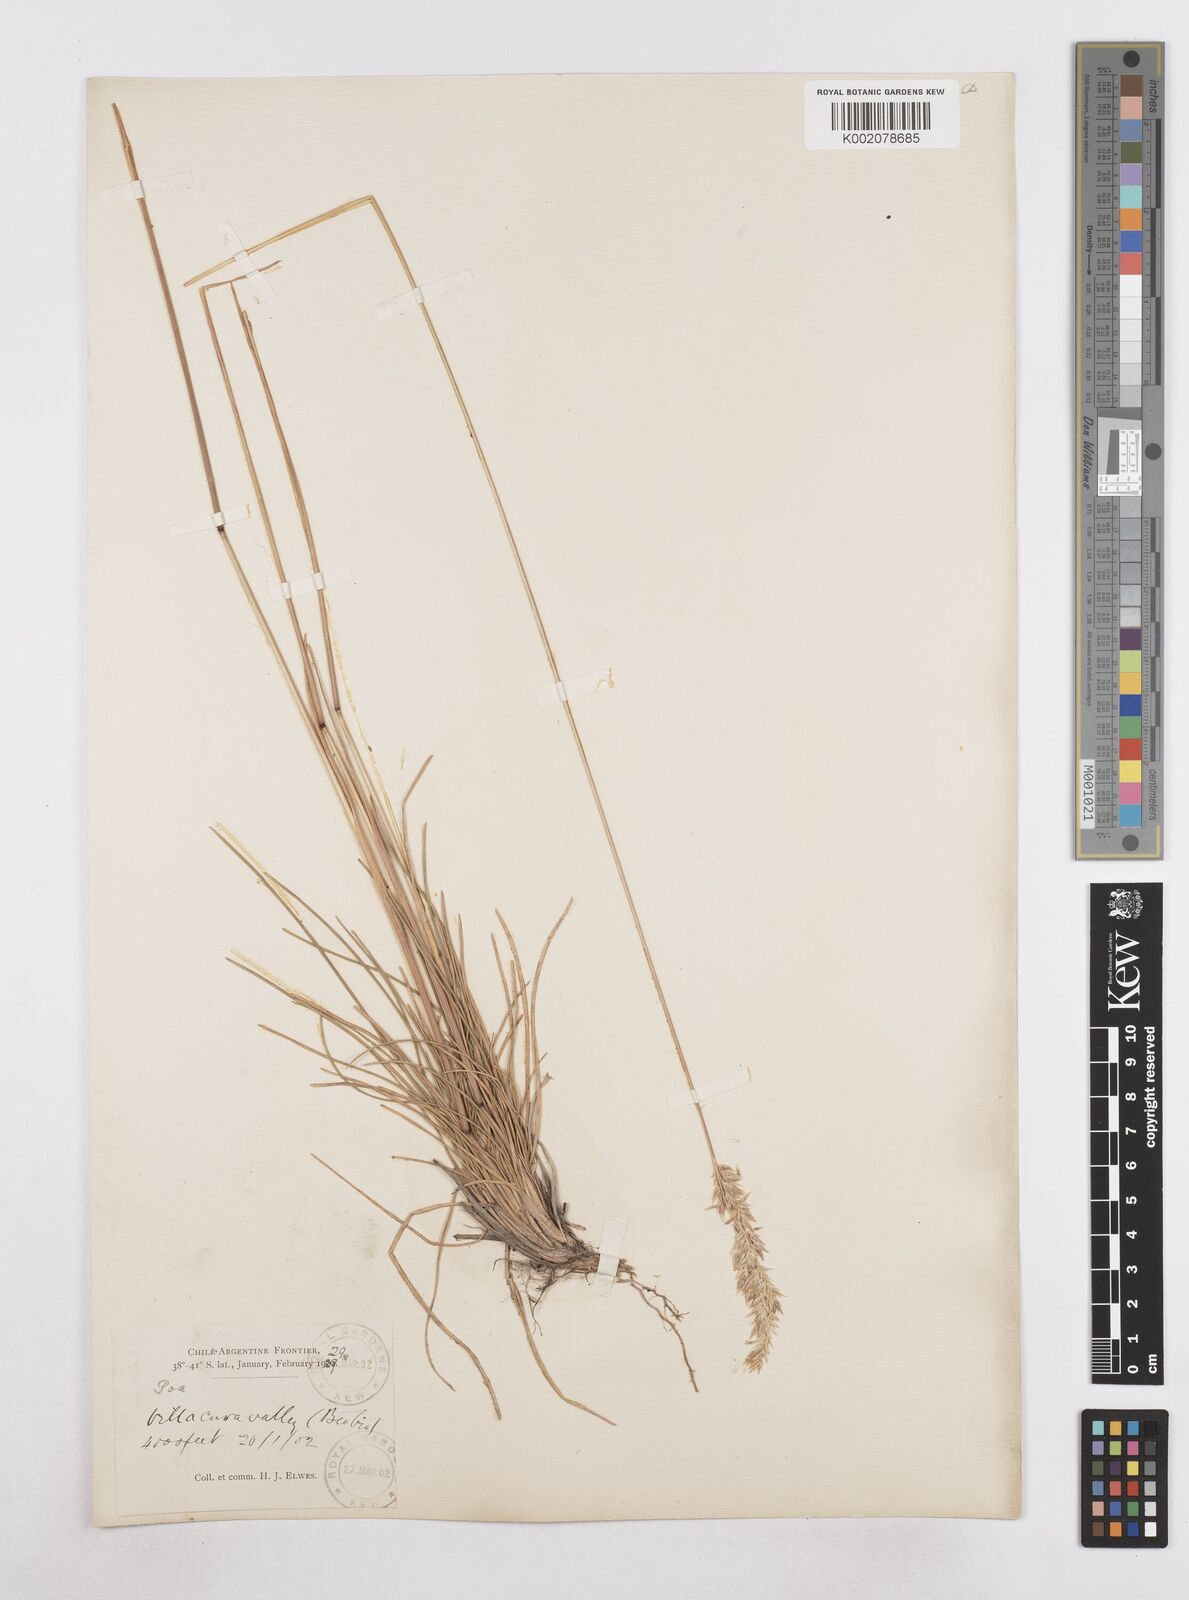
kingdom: Plantae
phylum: Tracheophyta
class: Liliopsida
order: Poales
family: Poaceae
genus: Arctopoa
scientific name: Arctopoa tibetica
